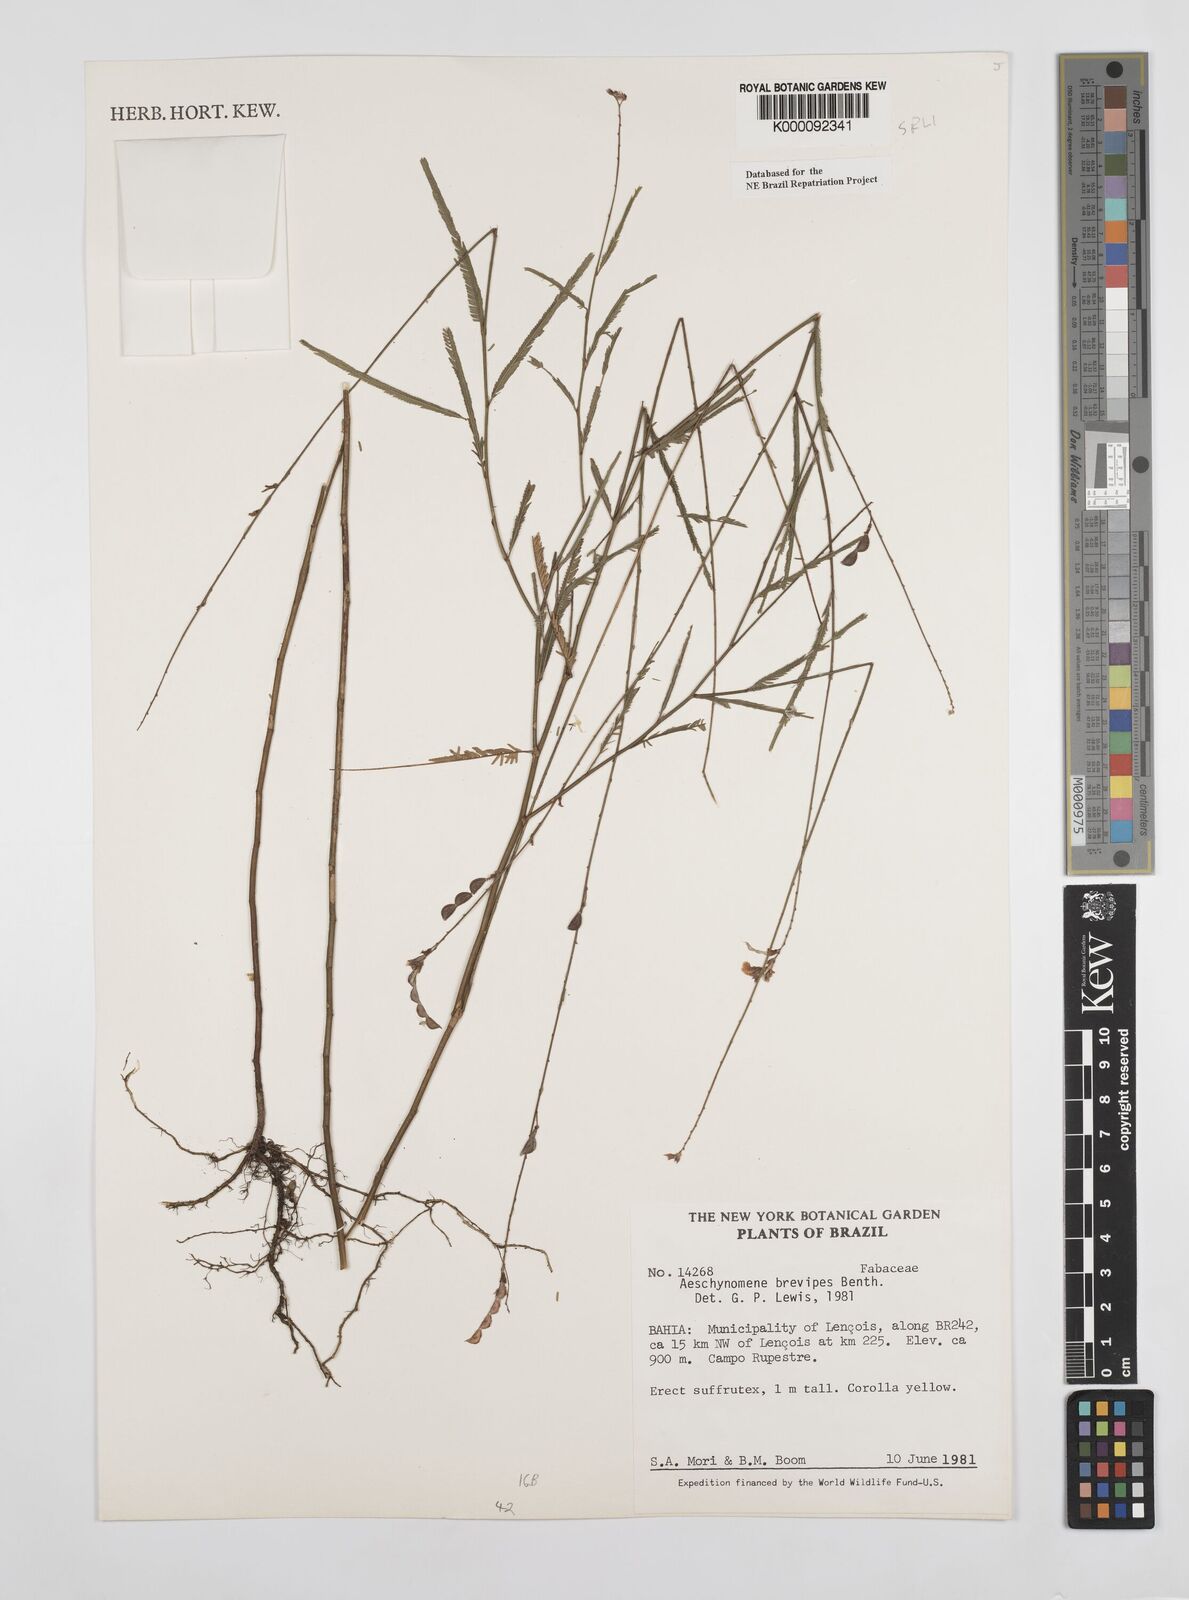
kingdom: Plantae
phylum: Tracheophyta
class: Magnoliopsida
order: Fabales
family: Fabaceae
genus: Ctenodon
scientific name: Ctenodon brevipes
